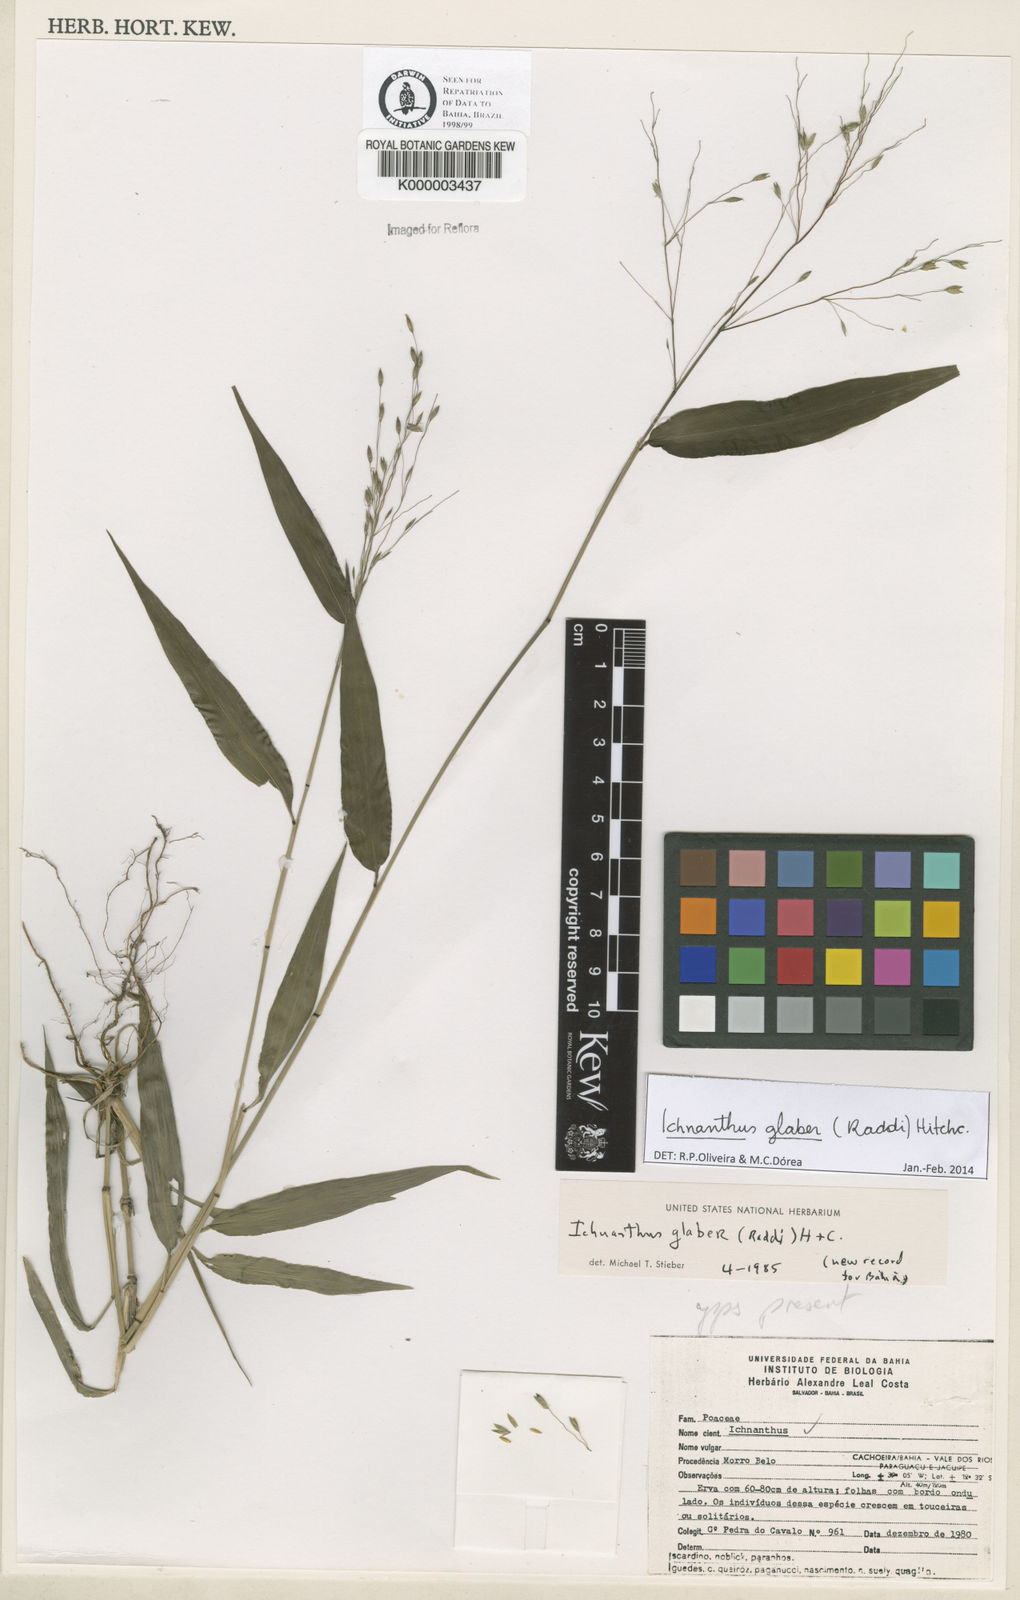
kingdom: Plantae
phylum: Tracheophyta
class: Liliopsida
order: Poales
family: Poaceae
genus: Ichnanthus
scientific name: Ichnanthus glaber
